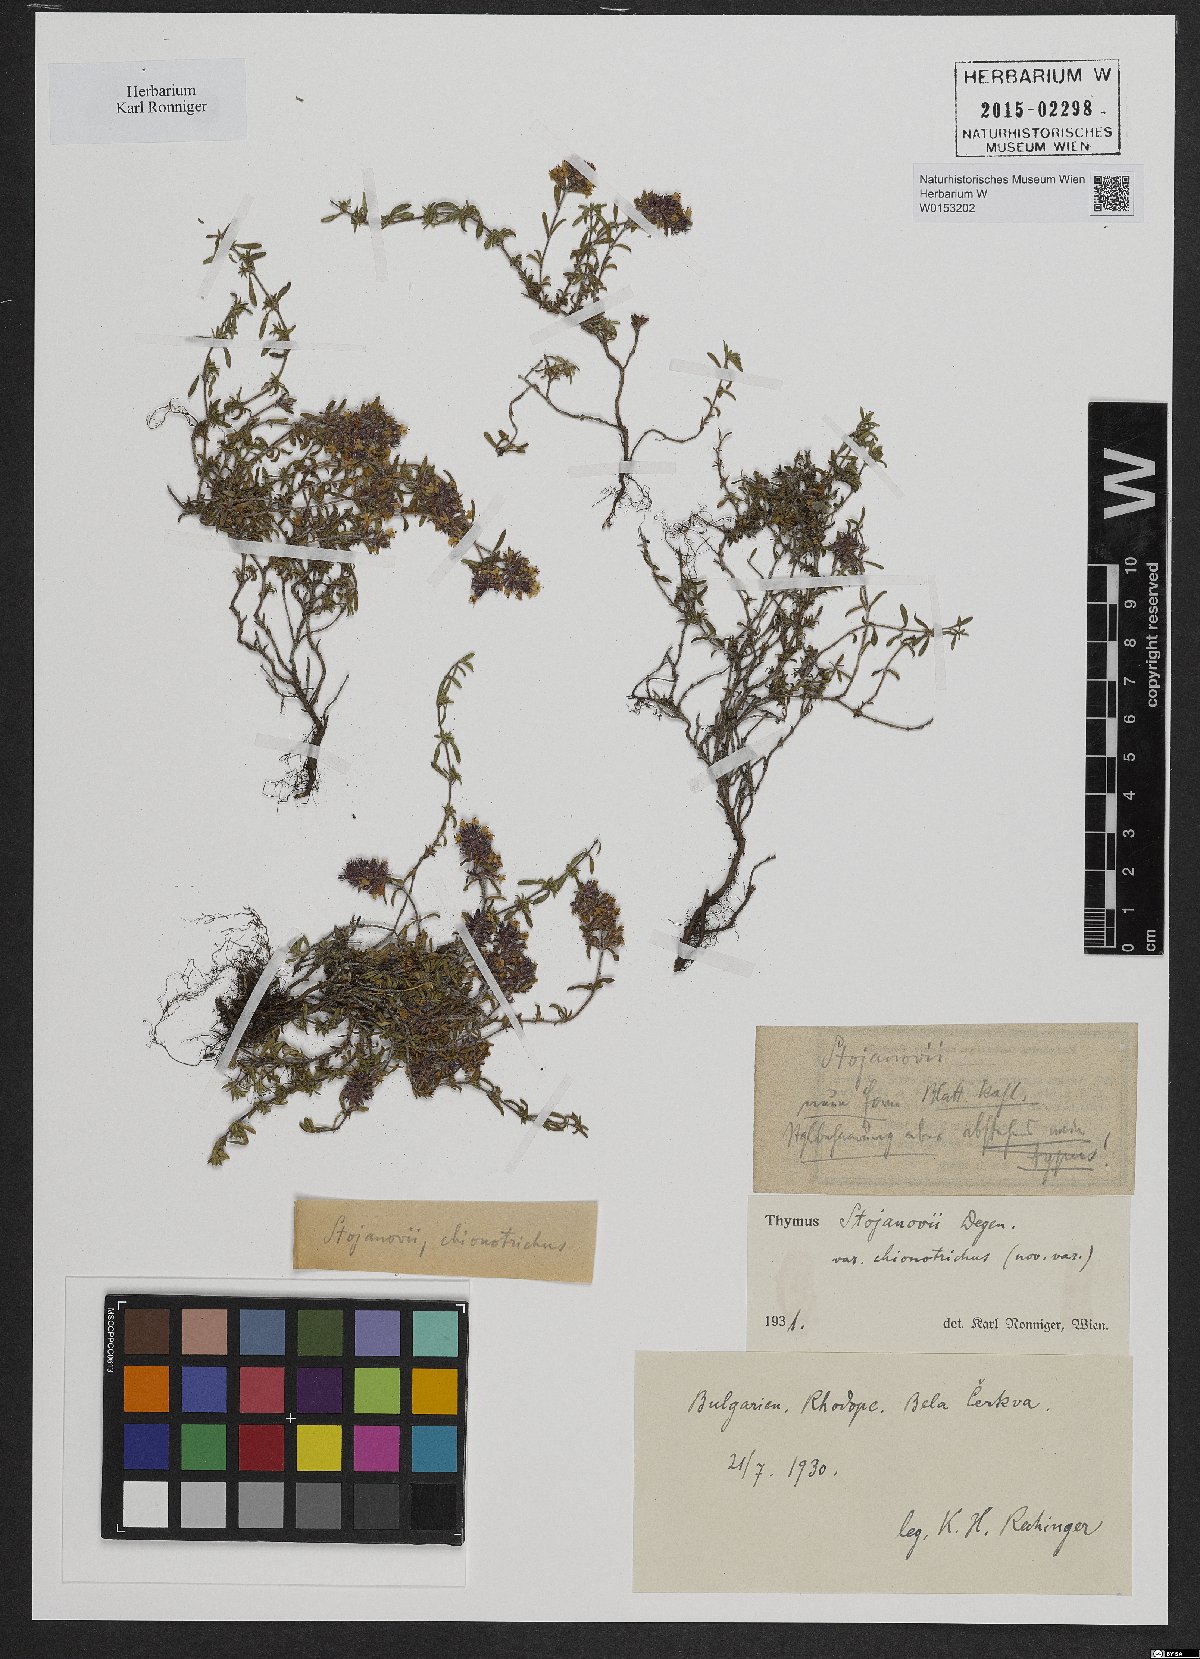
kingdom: Plantae
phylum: Tracheophyta
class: Magnoliopsida
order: Lamiales
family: Lamiaceae
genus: Thymus
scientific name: Thymus stojanovii
